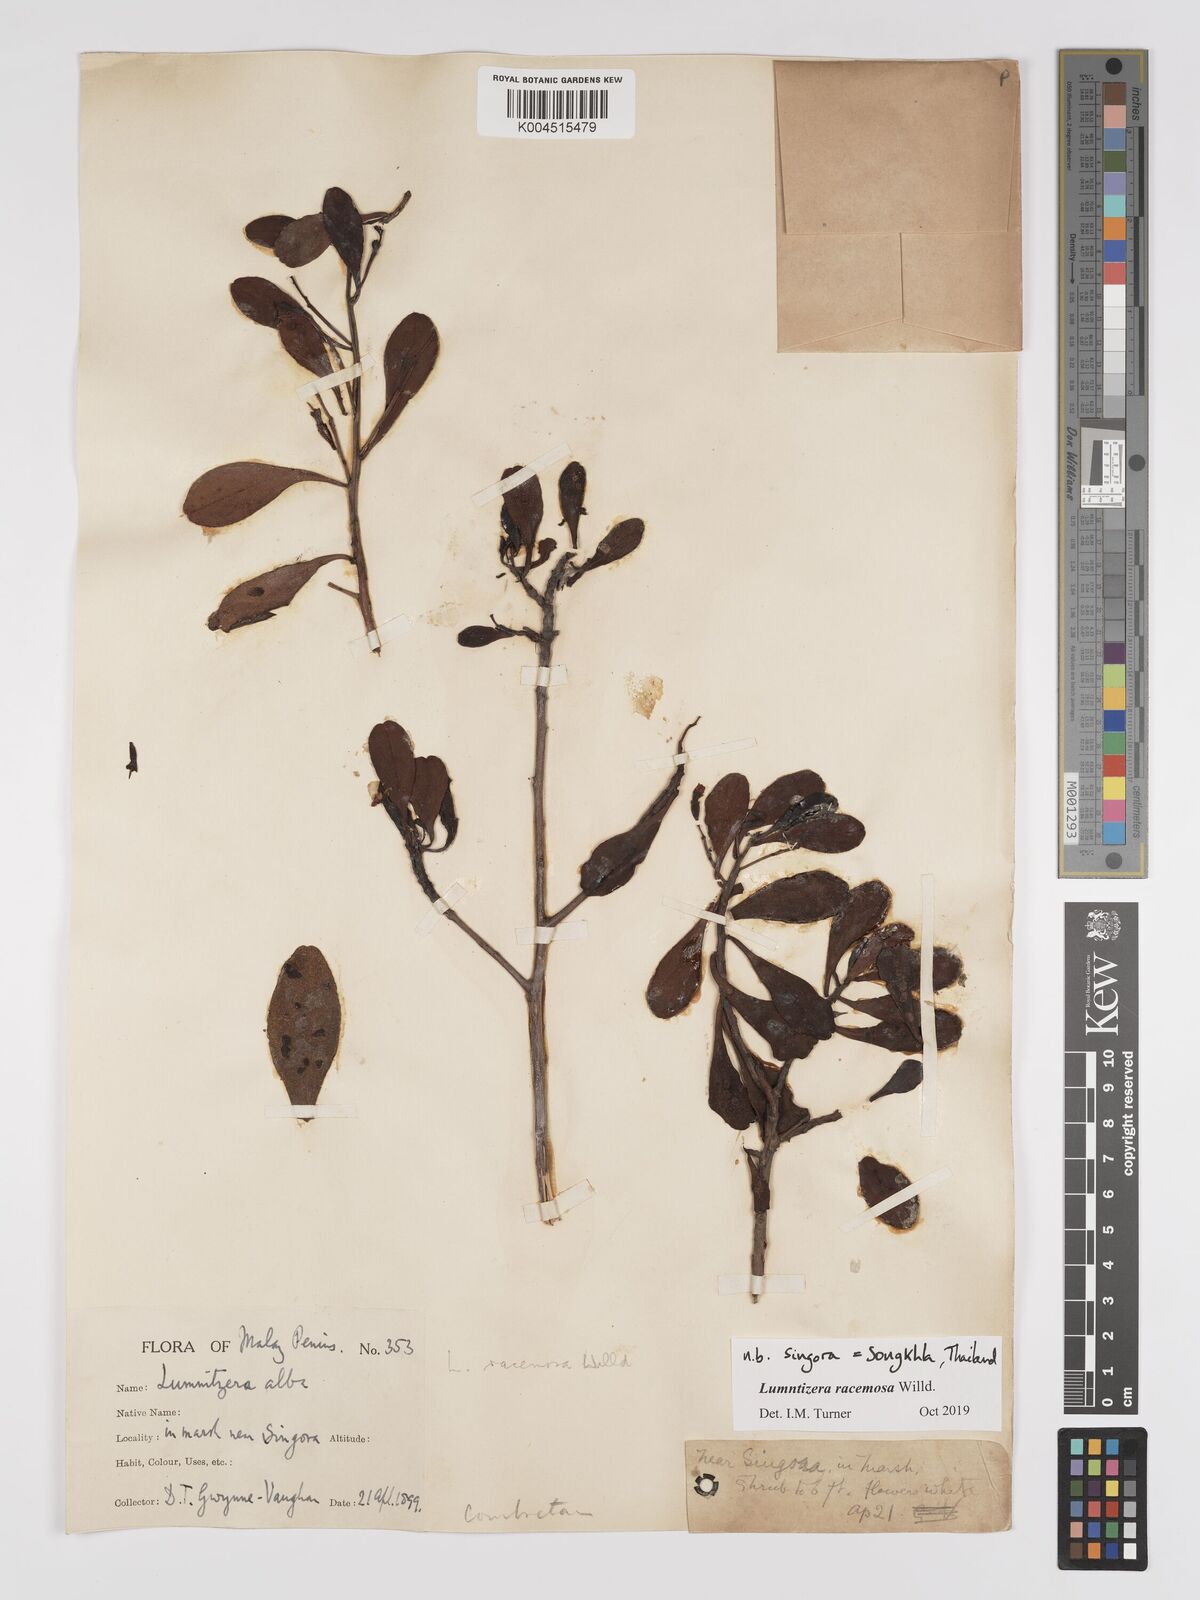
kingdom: Plantae
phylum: Tracheophyta
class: Magnoliopsida
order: Myrtales
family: Combretaceae
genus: Lumnitzera
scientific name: Lumnitzera racemosa
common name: White-flowered black mangrove
